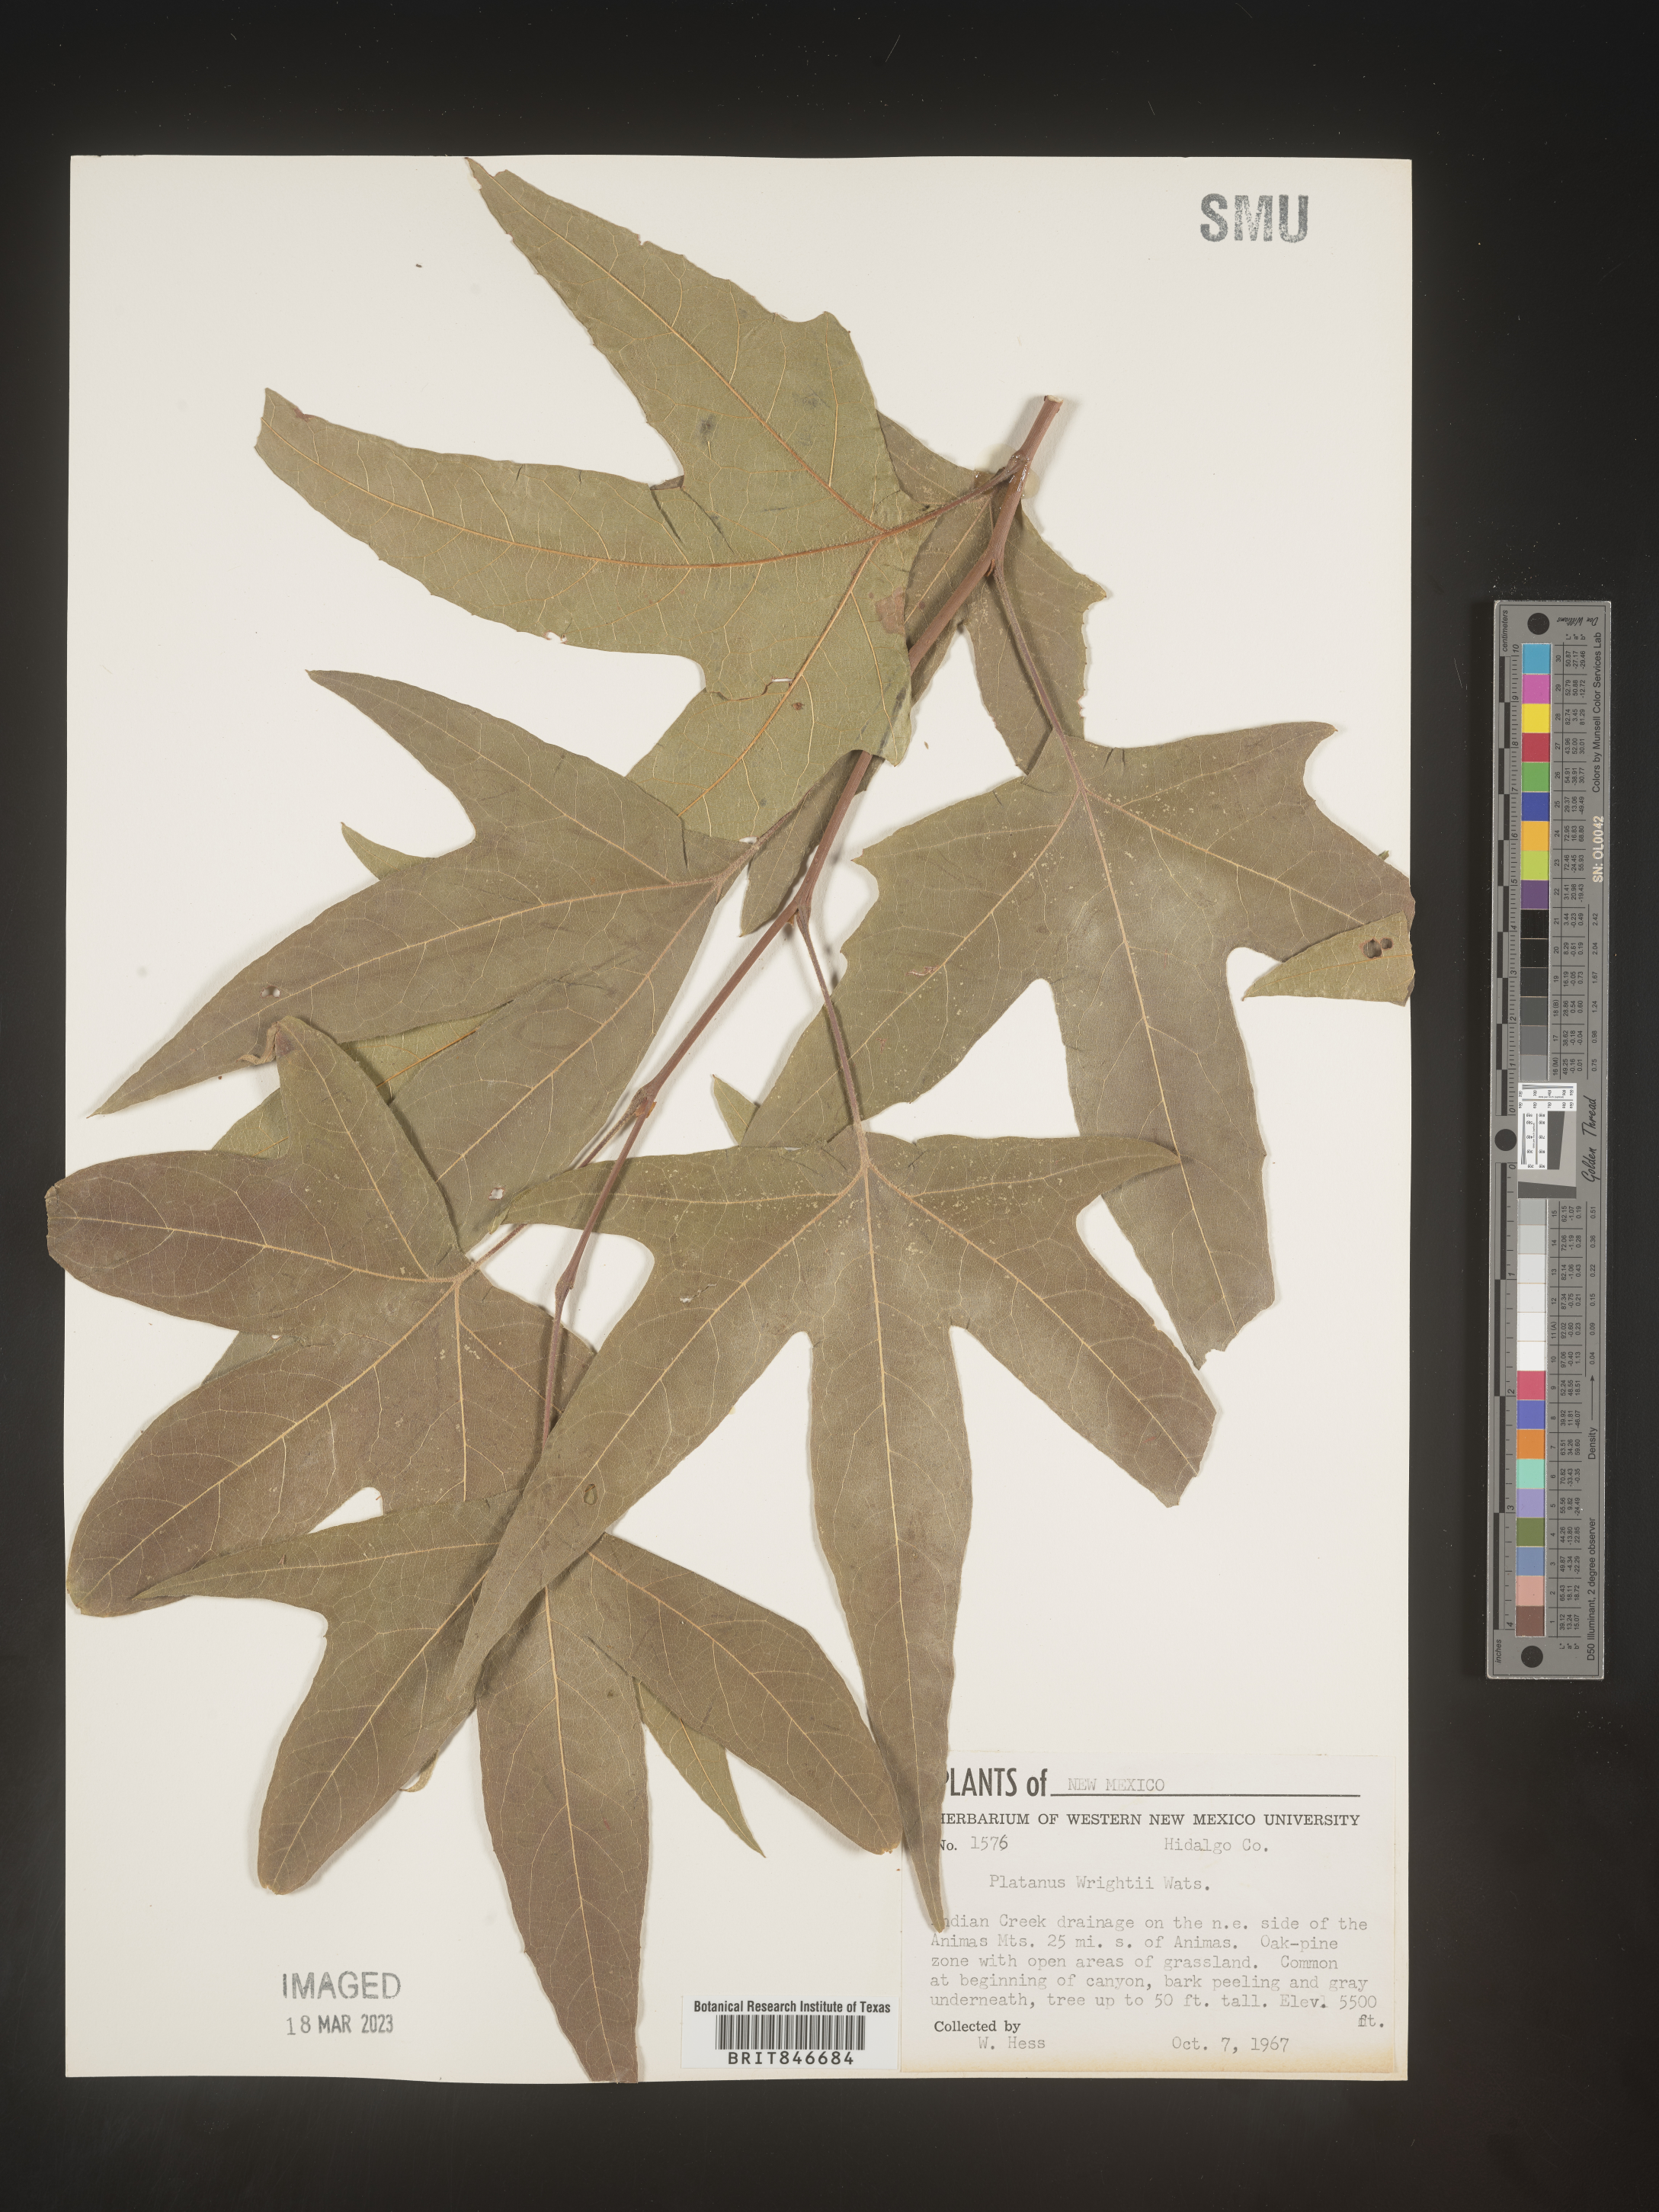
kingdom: Plantae
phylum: Tracheophyta
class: Magnoliopsida
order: Proteales
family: Platanaceae
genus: Platanus
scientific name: Platanus
